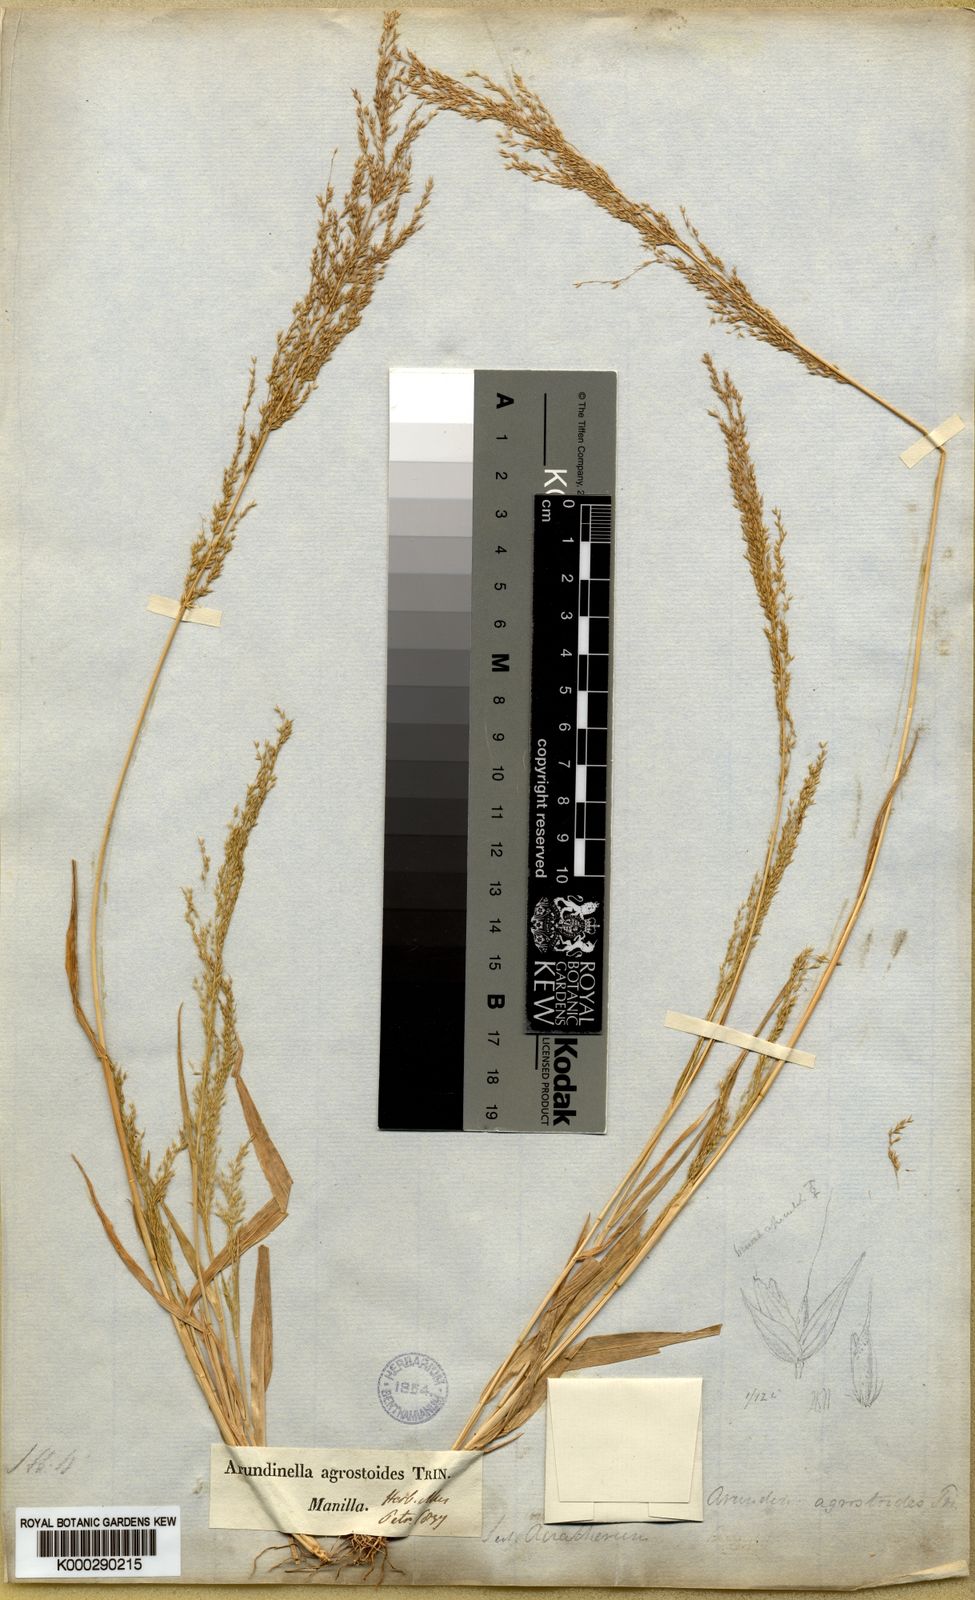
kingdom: Plantae
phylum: Tracheophyta
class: Liliopsida
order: Poales
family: Poaceae
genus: Arundinella
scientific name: Arundinella holcoides
